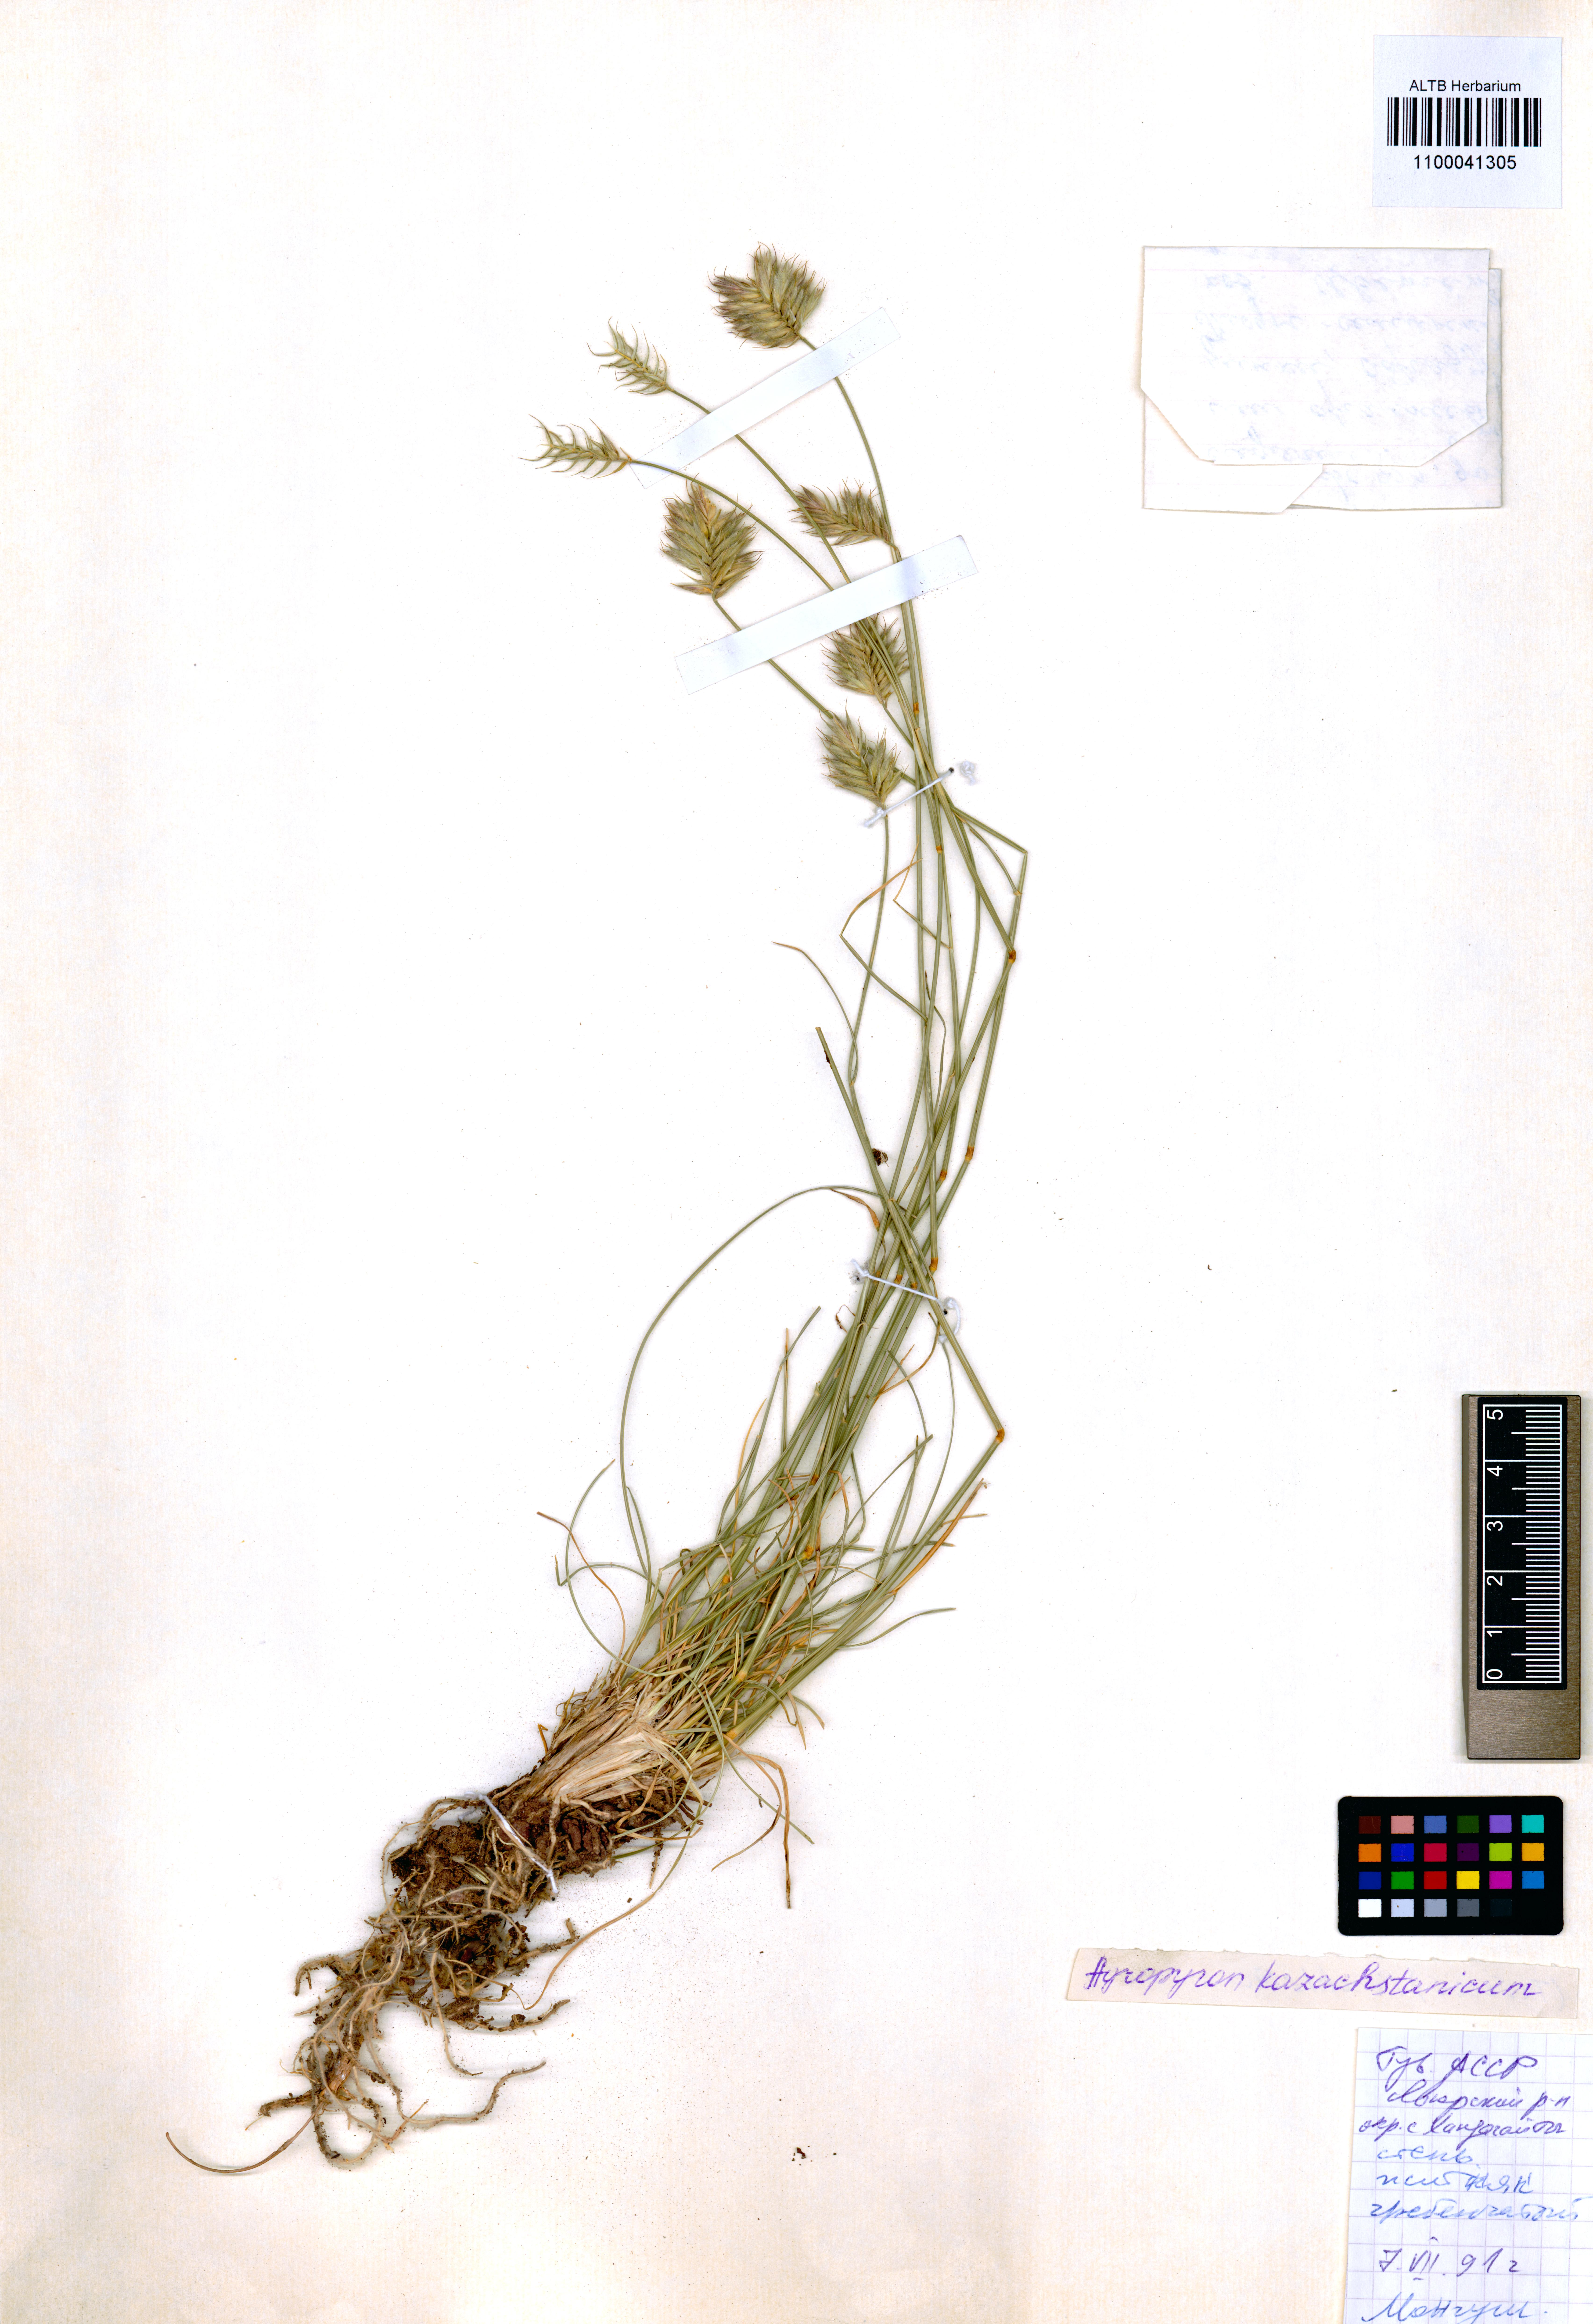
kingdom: Plantae
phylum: Tracheophyta
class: Liliopsida
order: Poales
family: Poaceae
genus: Agropyron
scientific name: Agropyron cristatum
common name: Crested wheatgrass
